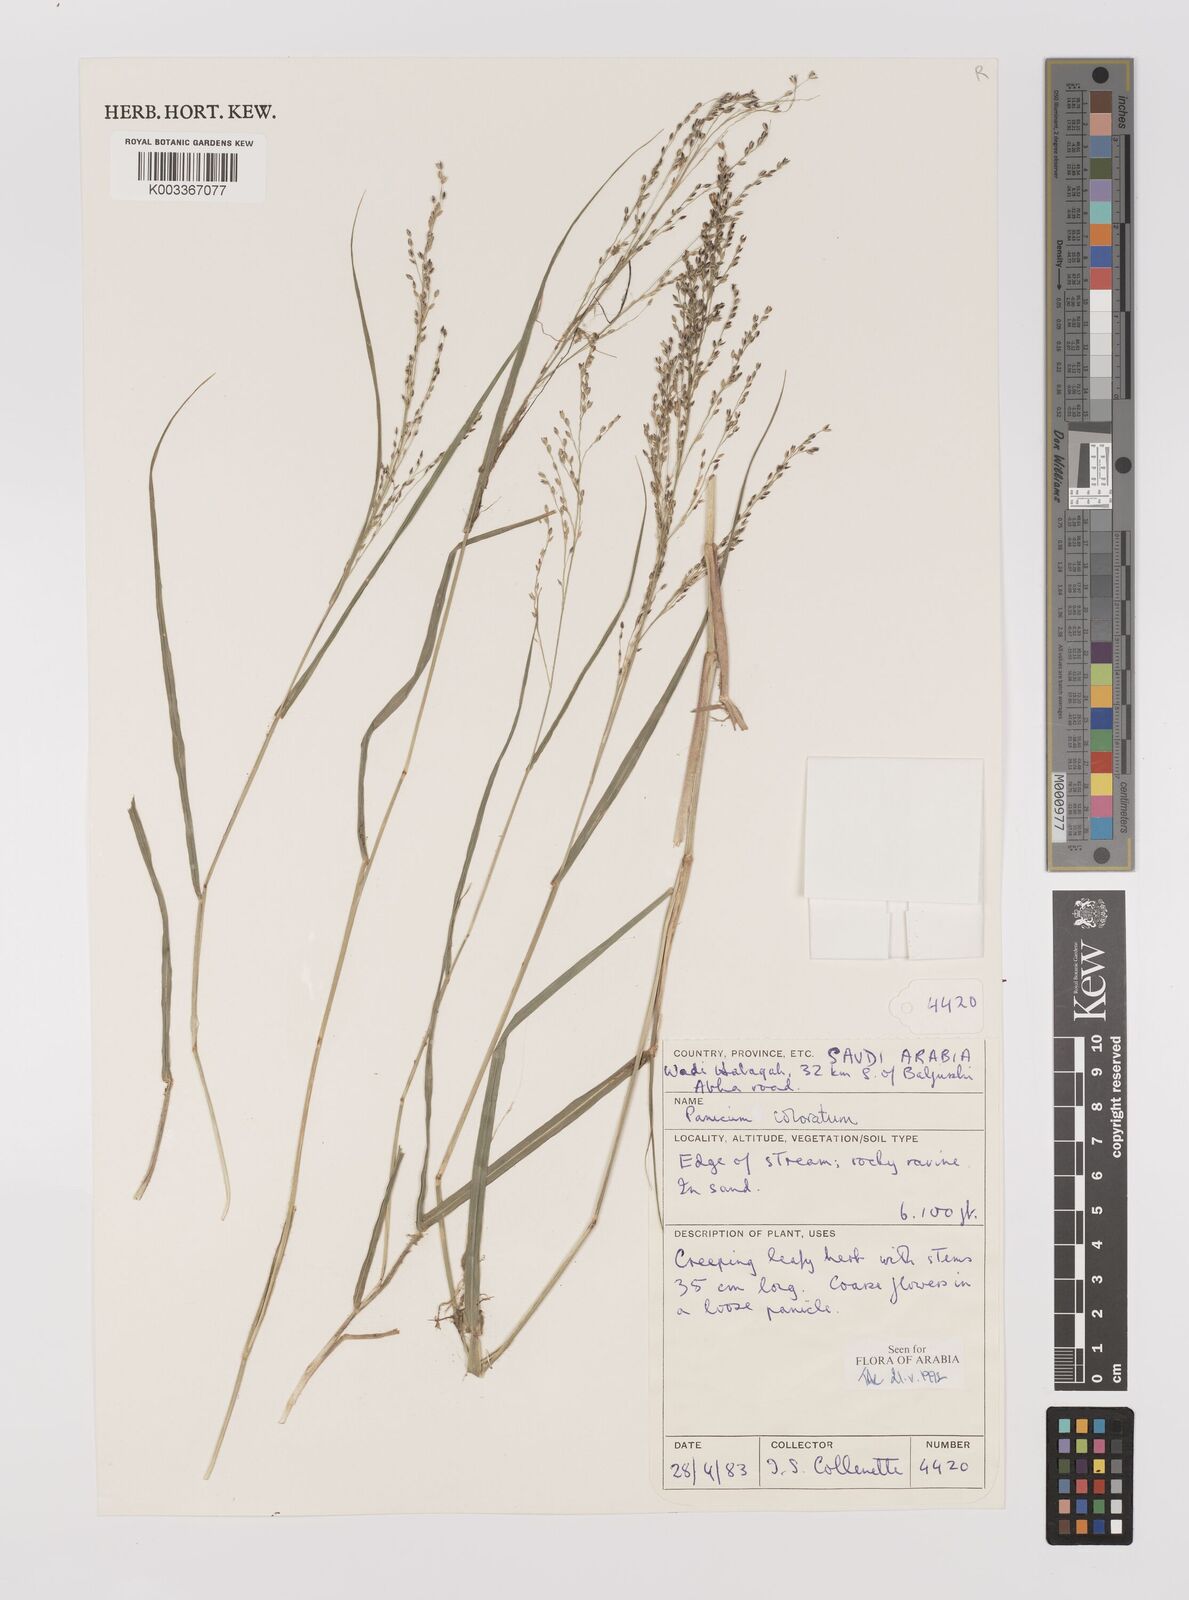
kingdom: Plantae
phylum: Tracheophyta
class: Liliopsida
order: Poales
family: Poaceae
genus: Panicum
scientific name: Panicum coloratum
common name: Kleingrass
